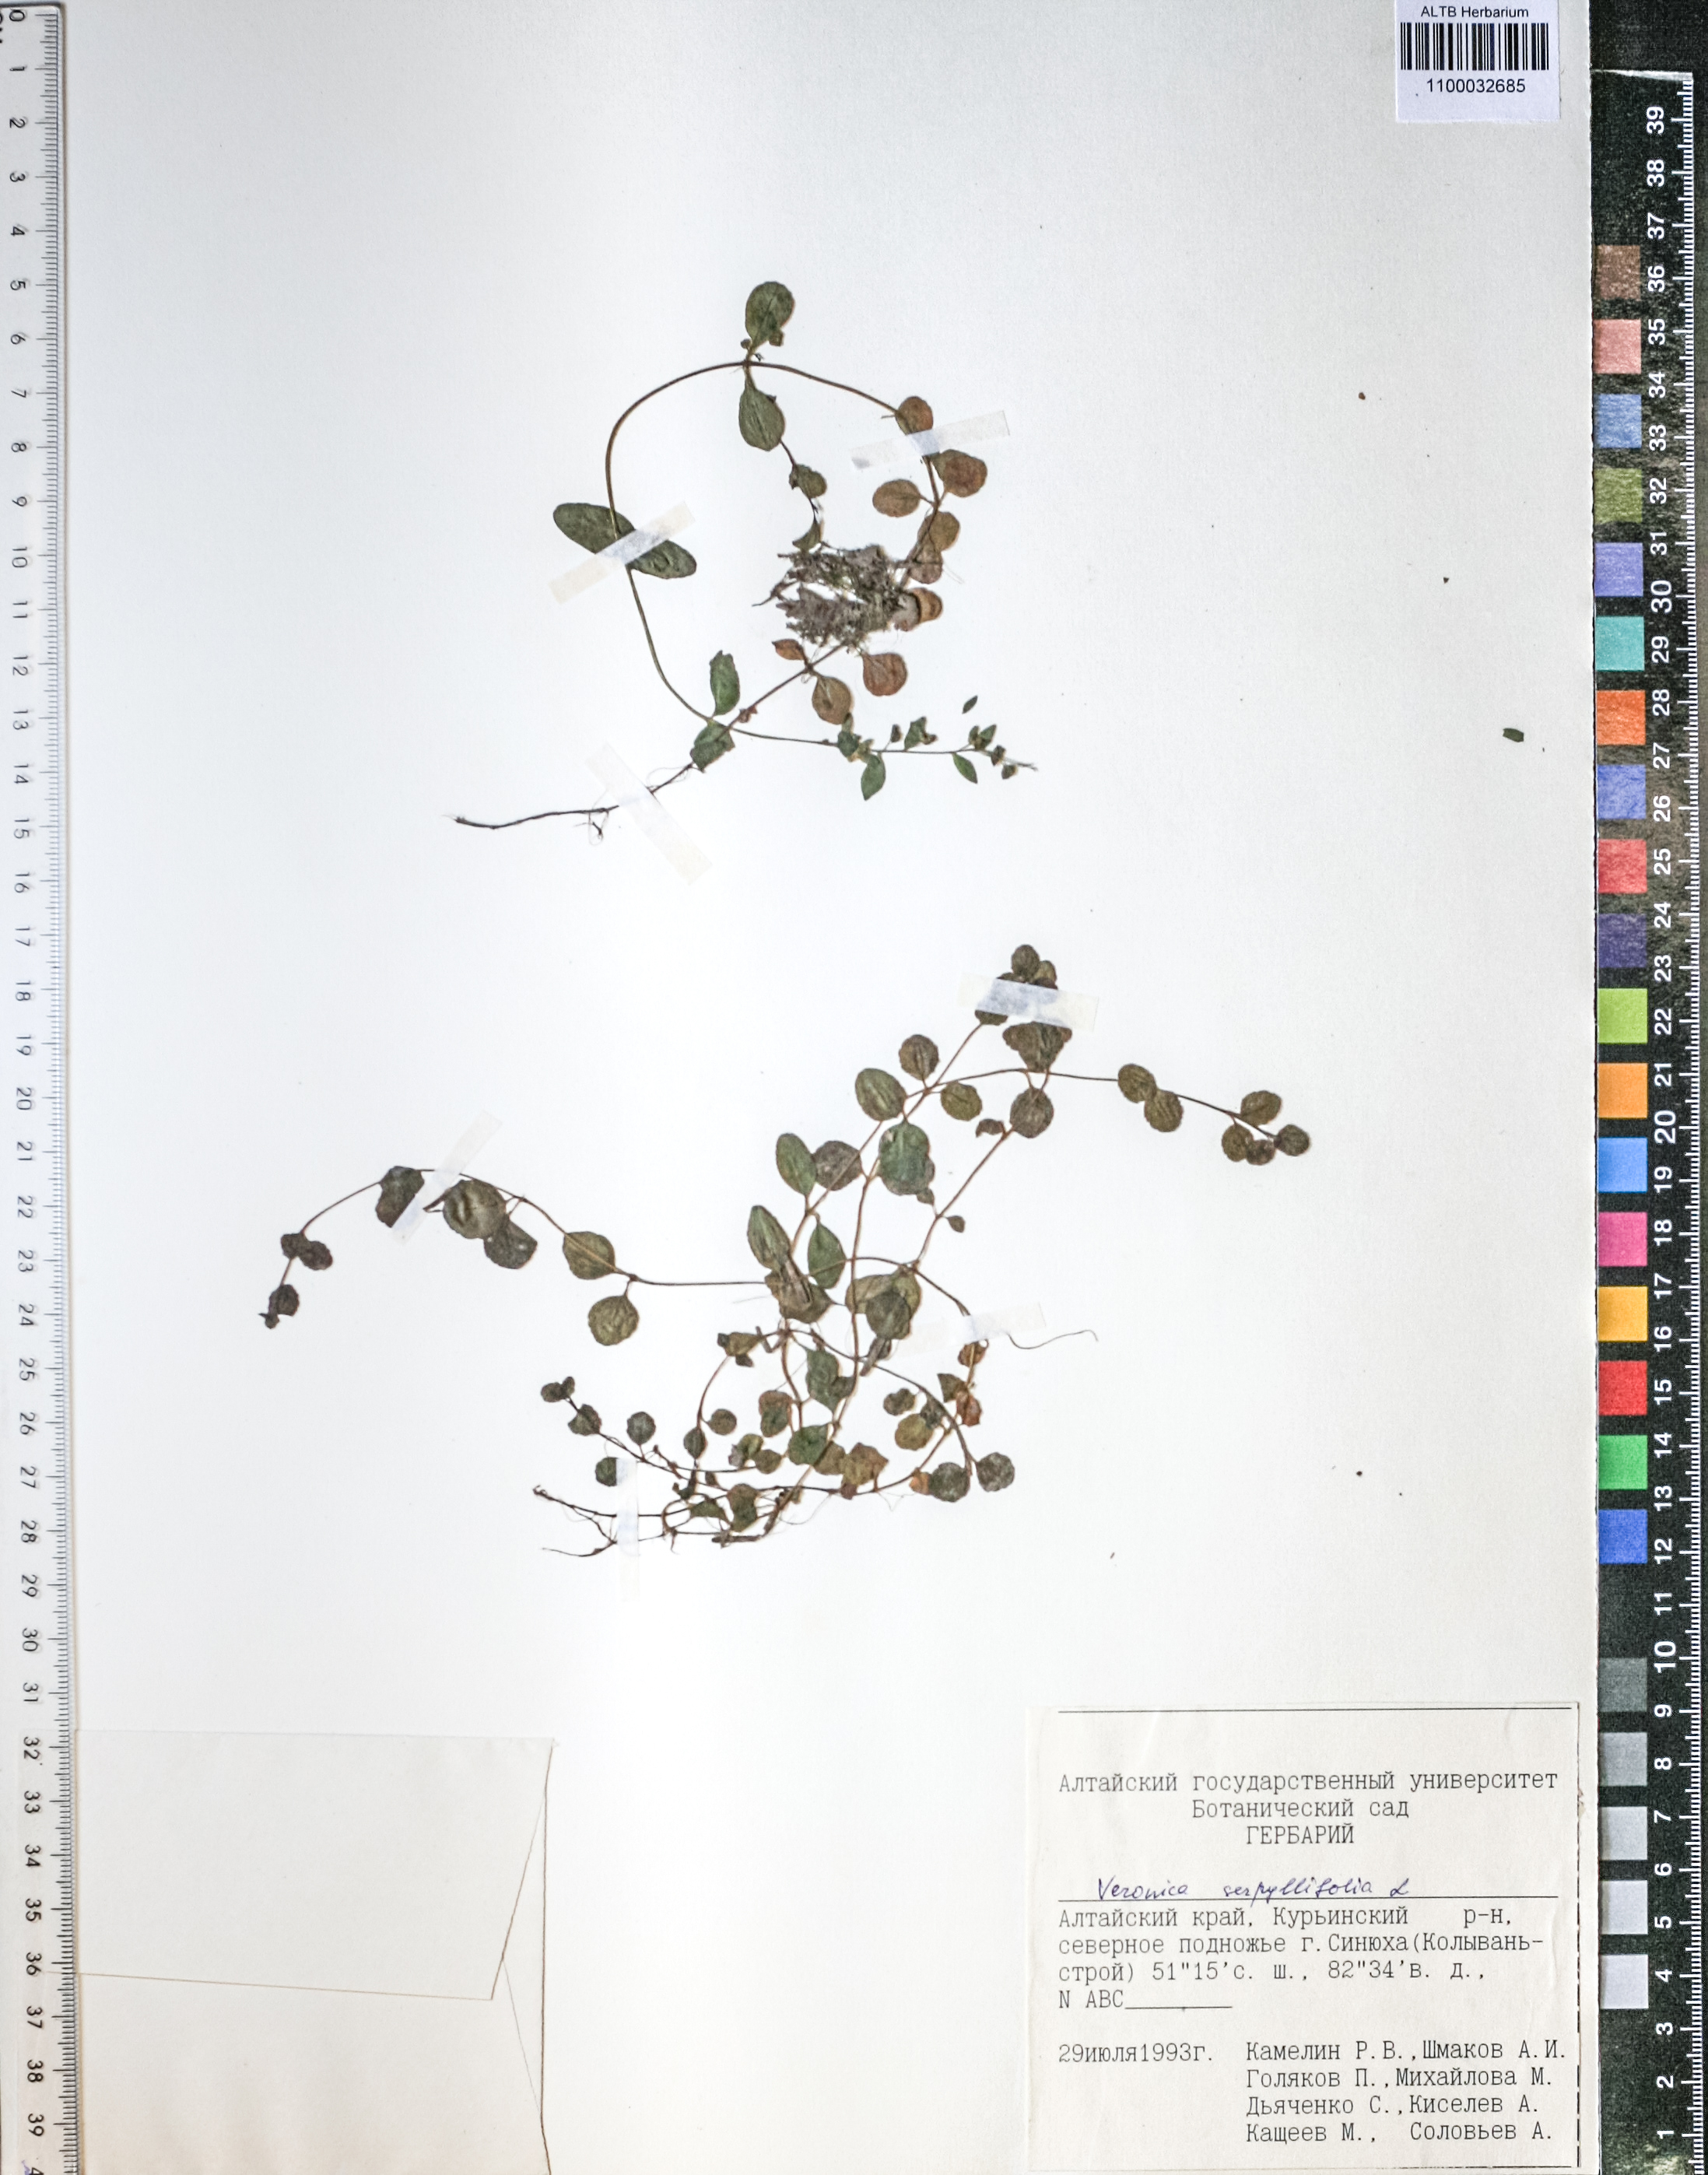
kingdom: Plantae
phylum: Tracheophyta
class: Magnoliopsida
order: Lamiales
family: Plantaginaceae
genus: Veronica
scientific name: Veronica serpyllifolia
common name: Thyme-leaved speedwell
